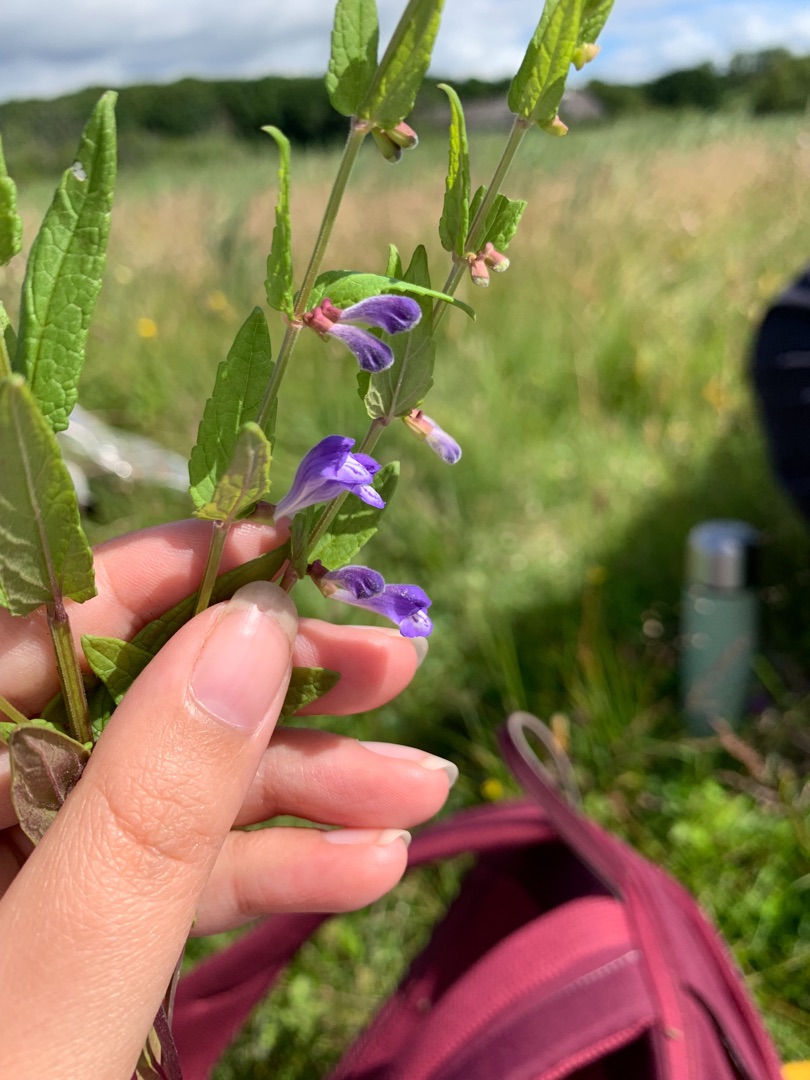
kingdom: Plantae
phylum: Tracheophyta
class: Magnoliopsida
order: Lamiales
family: Lamiaceae
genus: Scutellaria
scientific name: Scutellaria galericulata
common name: Almindelig skjolddrager
